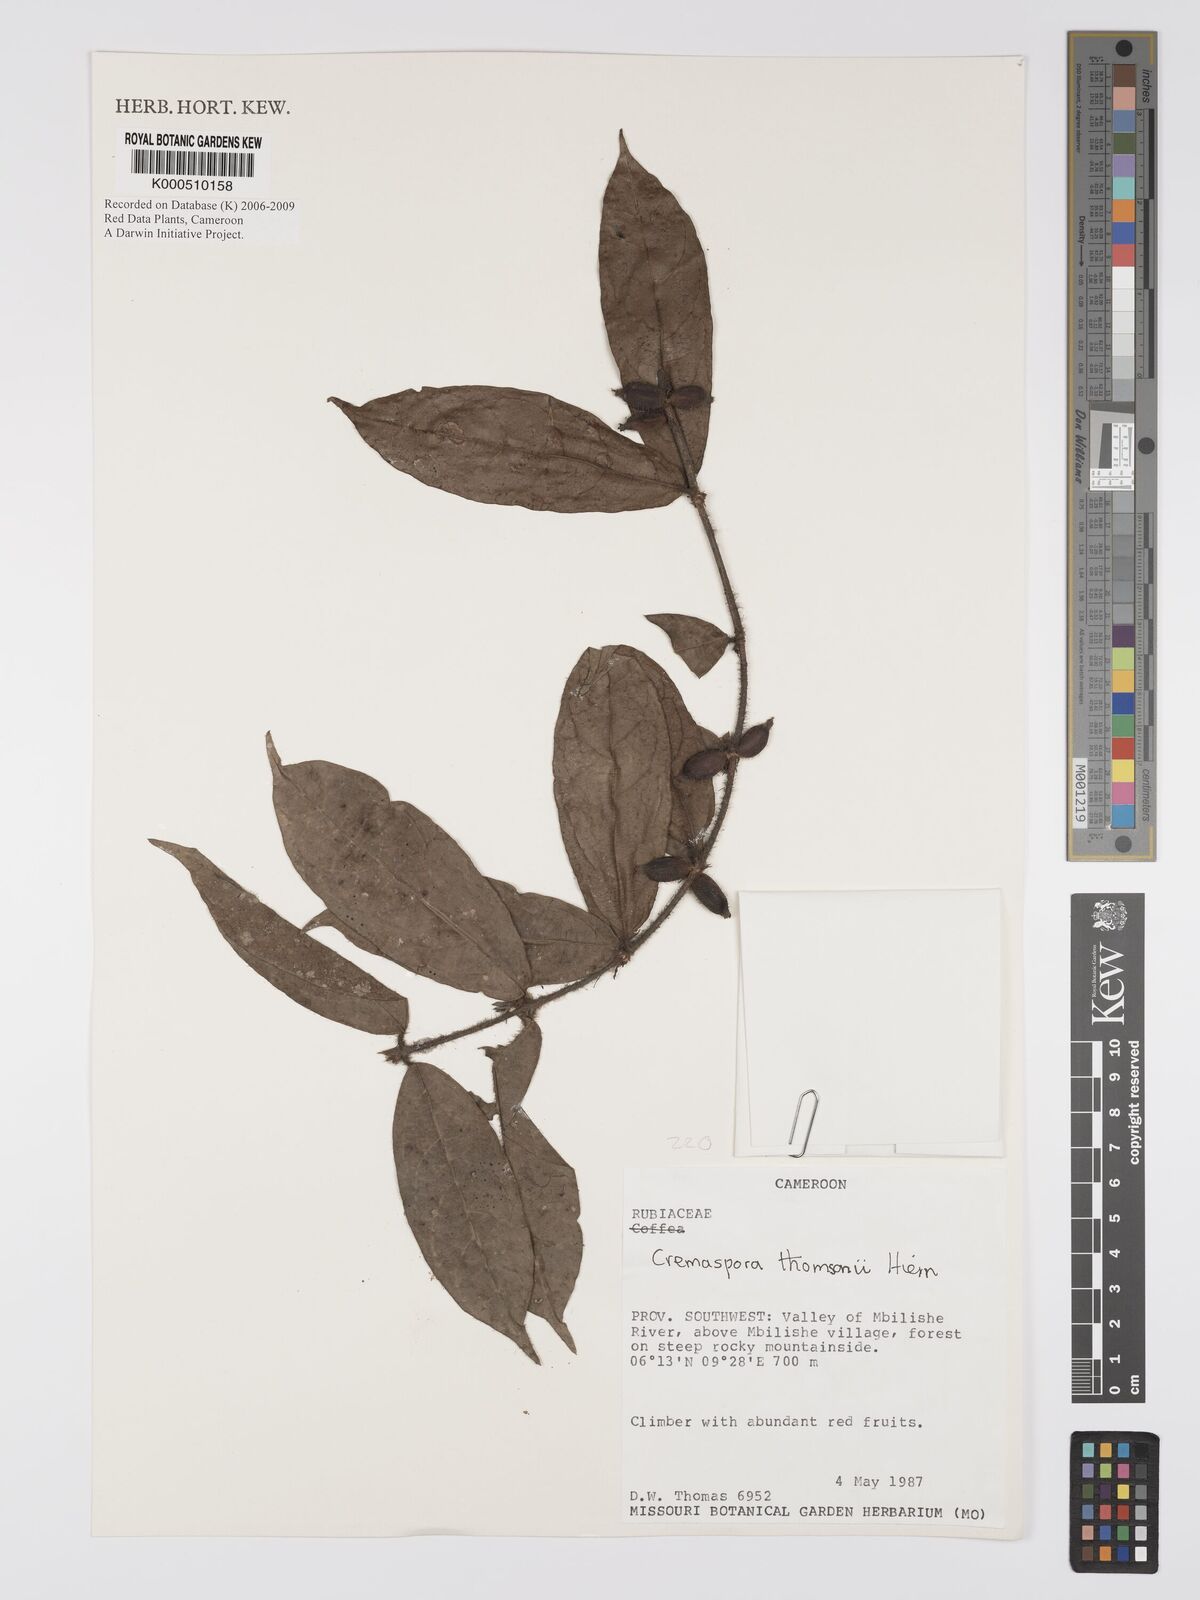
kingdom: Plantae
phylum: Tracheophyta
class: Magnoliopsida
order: Gentianales
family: Rubiaceae
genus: Cremaspora
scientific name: Cremaspora thomsonii
